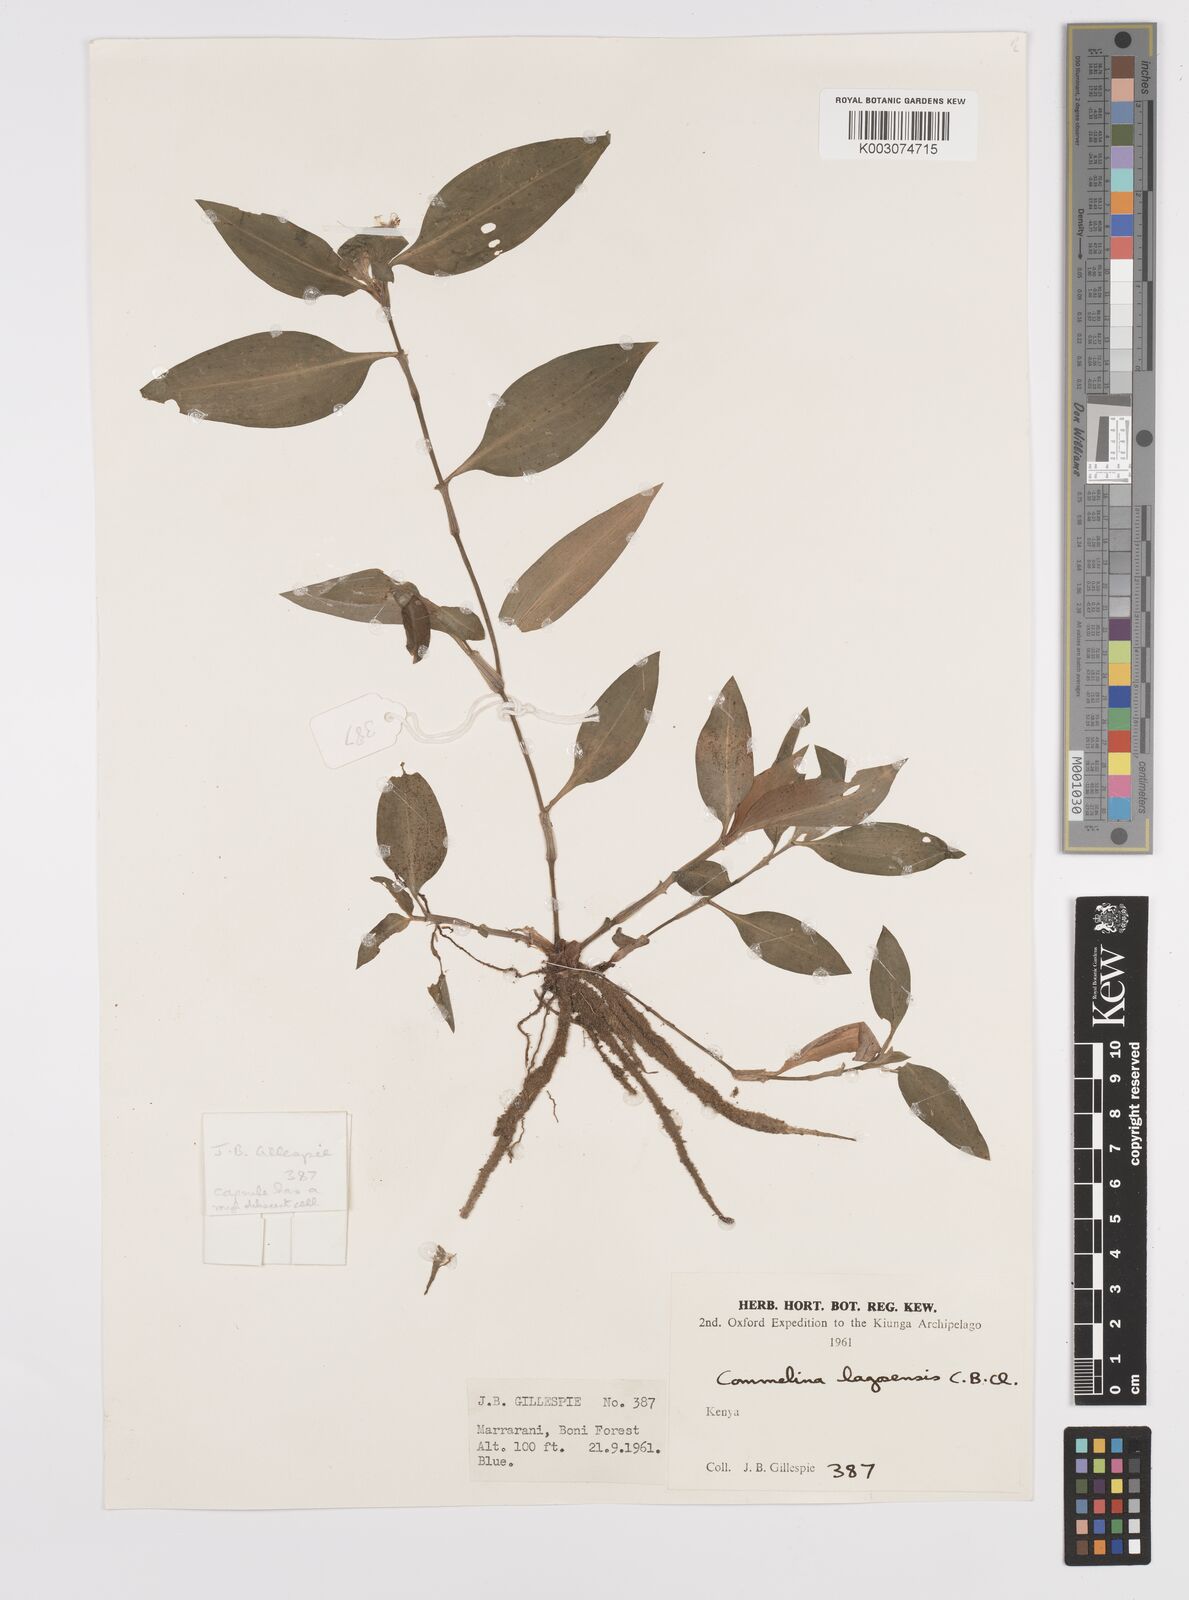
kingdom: Plantae
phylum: Tracheophyta
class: Liliopsida
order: Commelinales
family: Commelinaceae
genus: Commelina
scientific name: Commelina bracteosa
